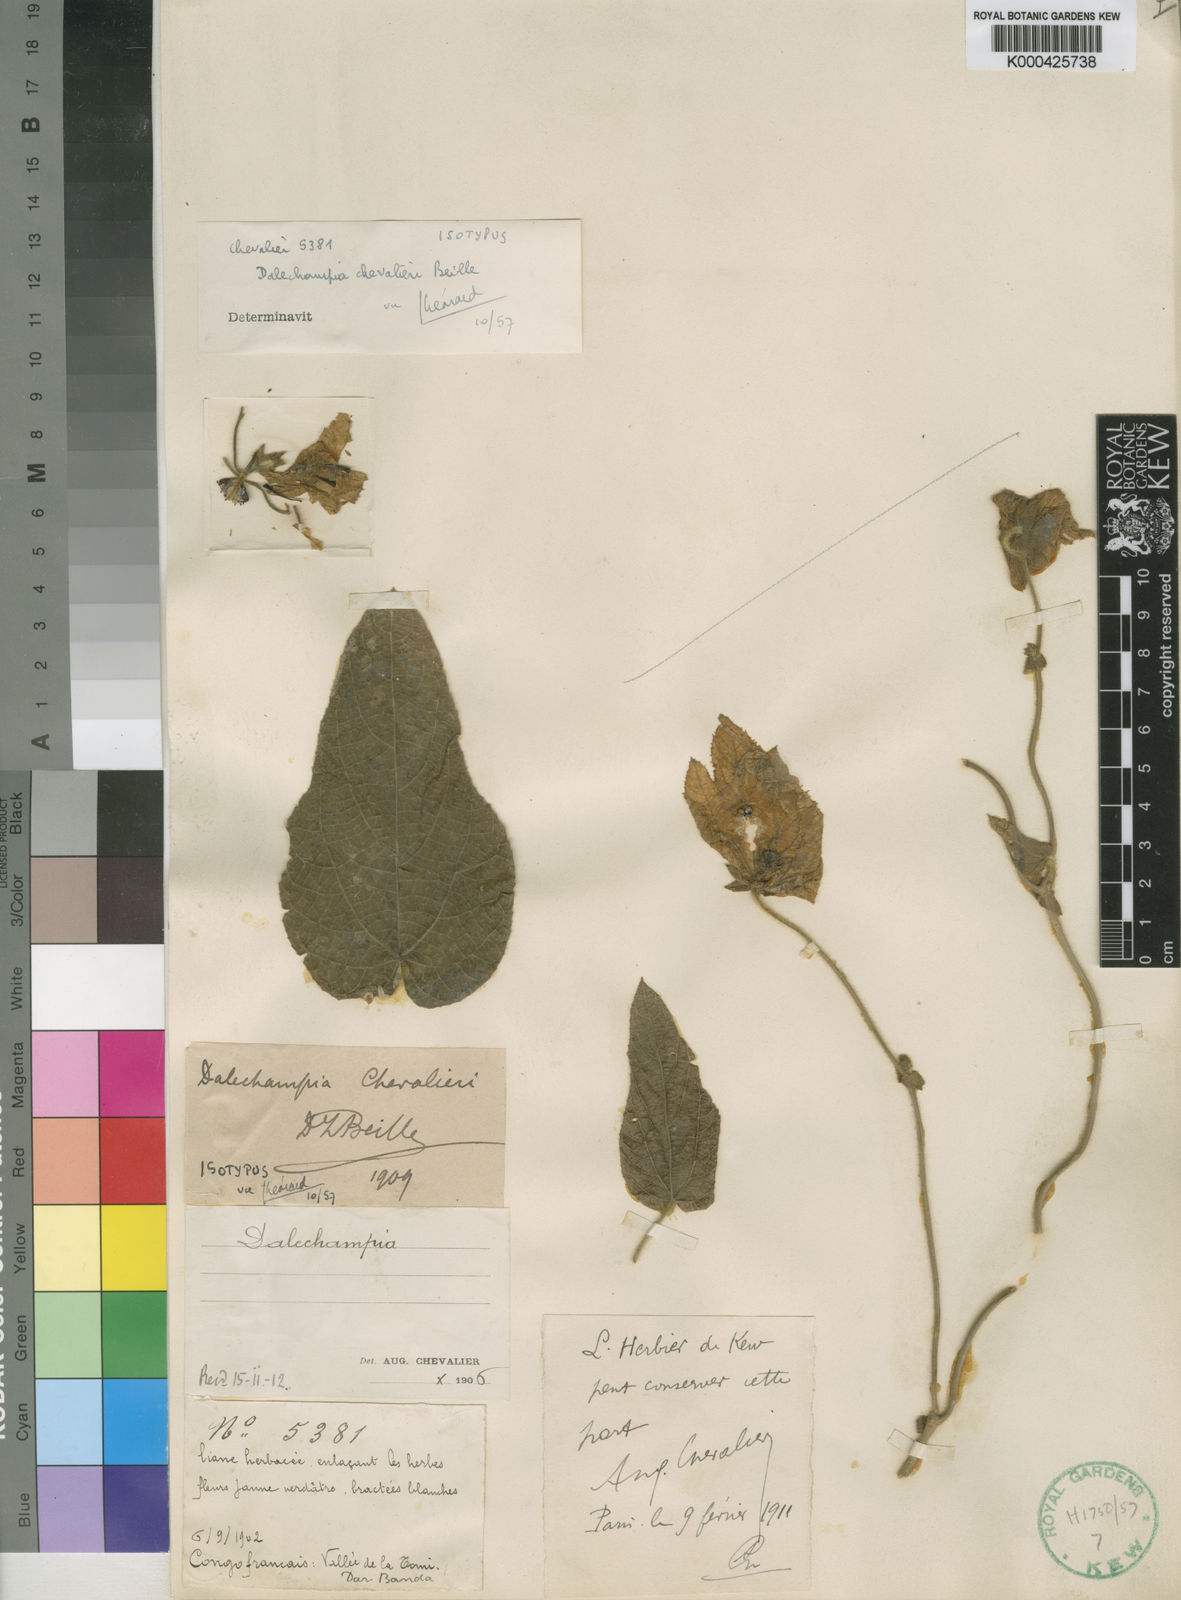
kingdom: Plantae
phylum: Tracheophyta
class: Magnoliopsida
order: Malpighiales
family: Euphorbiaceae
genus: Dalechampia
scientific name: Dalechampia chevalieri
